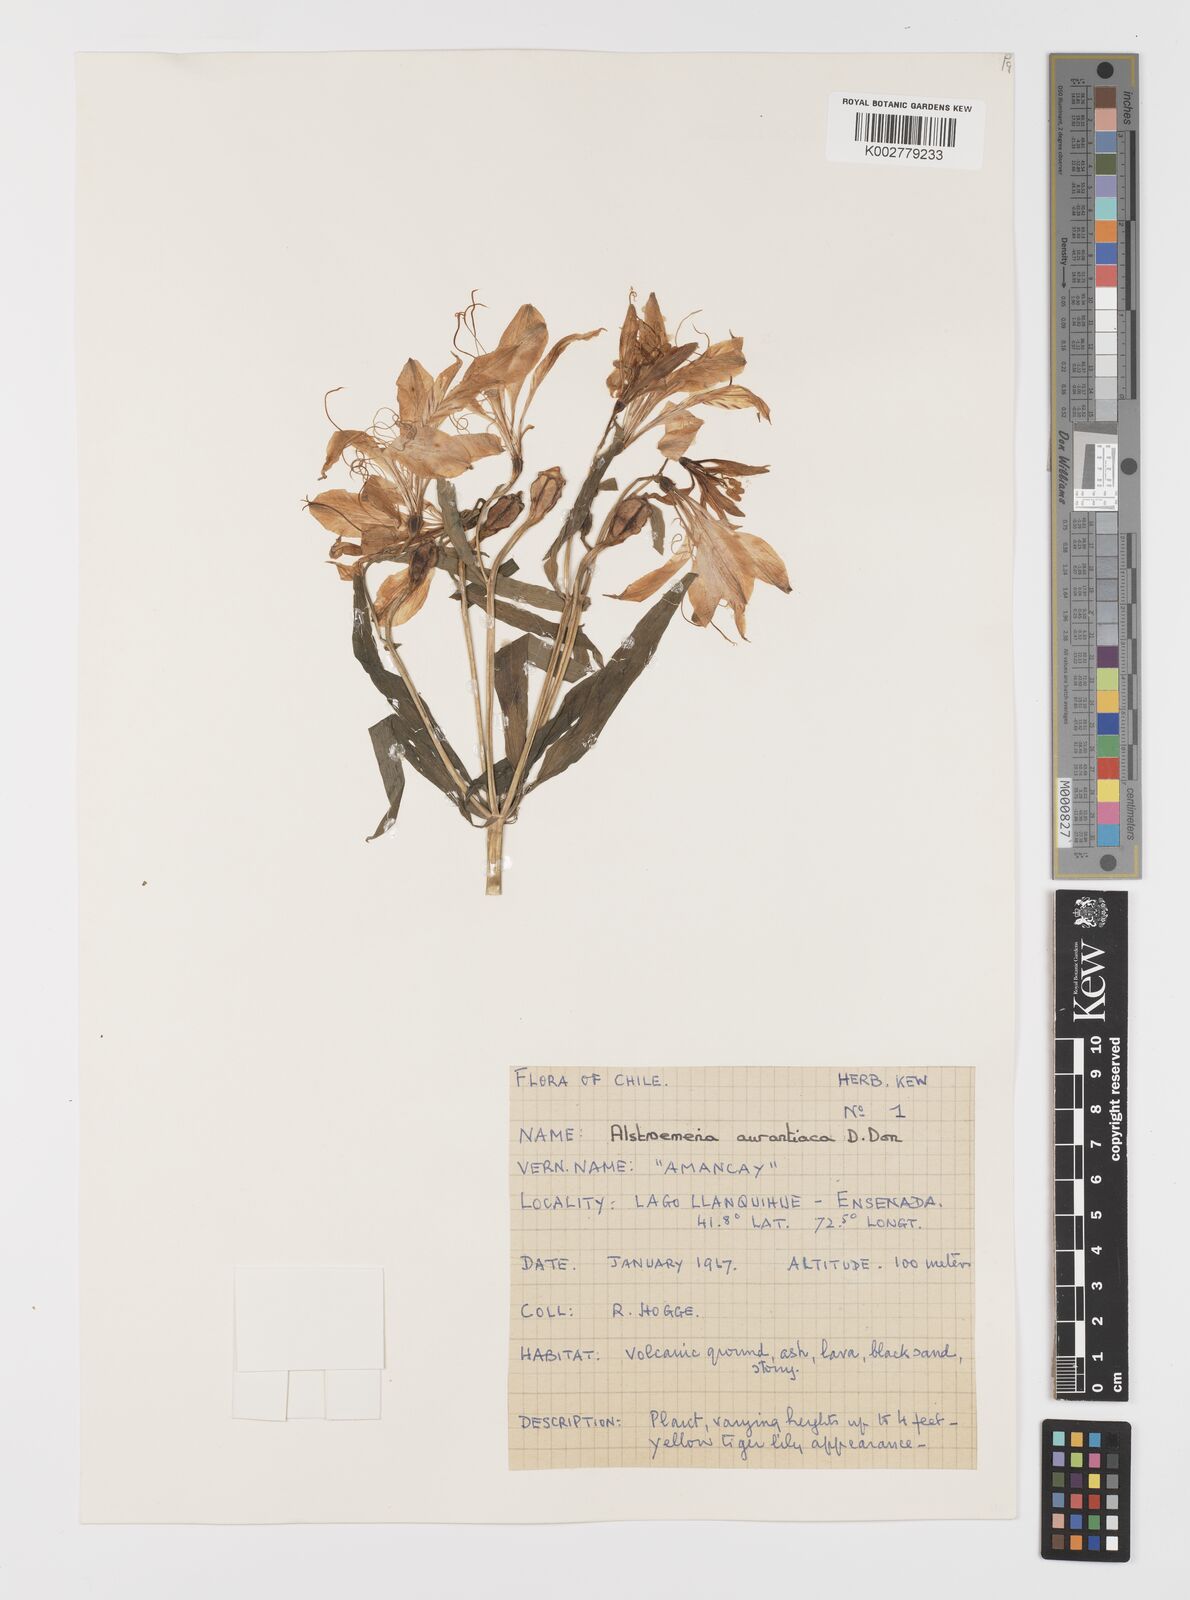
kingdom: Plantae
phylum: Tracheophyta
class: Liliopsida
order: Liliales
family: Alstroemeriaceae
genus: Alstroemeria
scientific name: Alstroemeria aurea
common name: Peruvian lily
